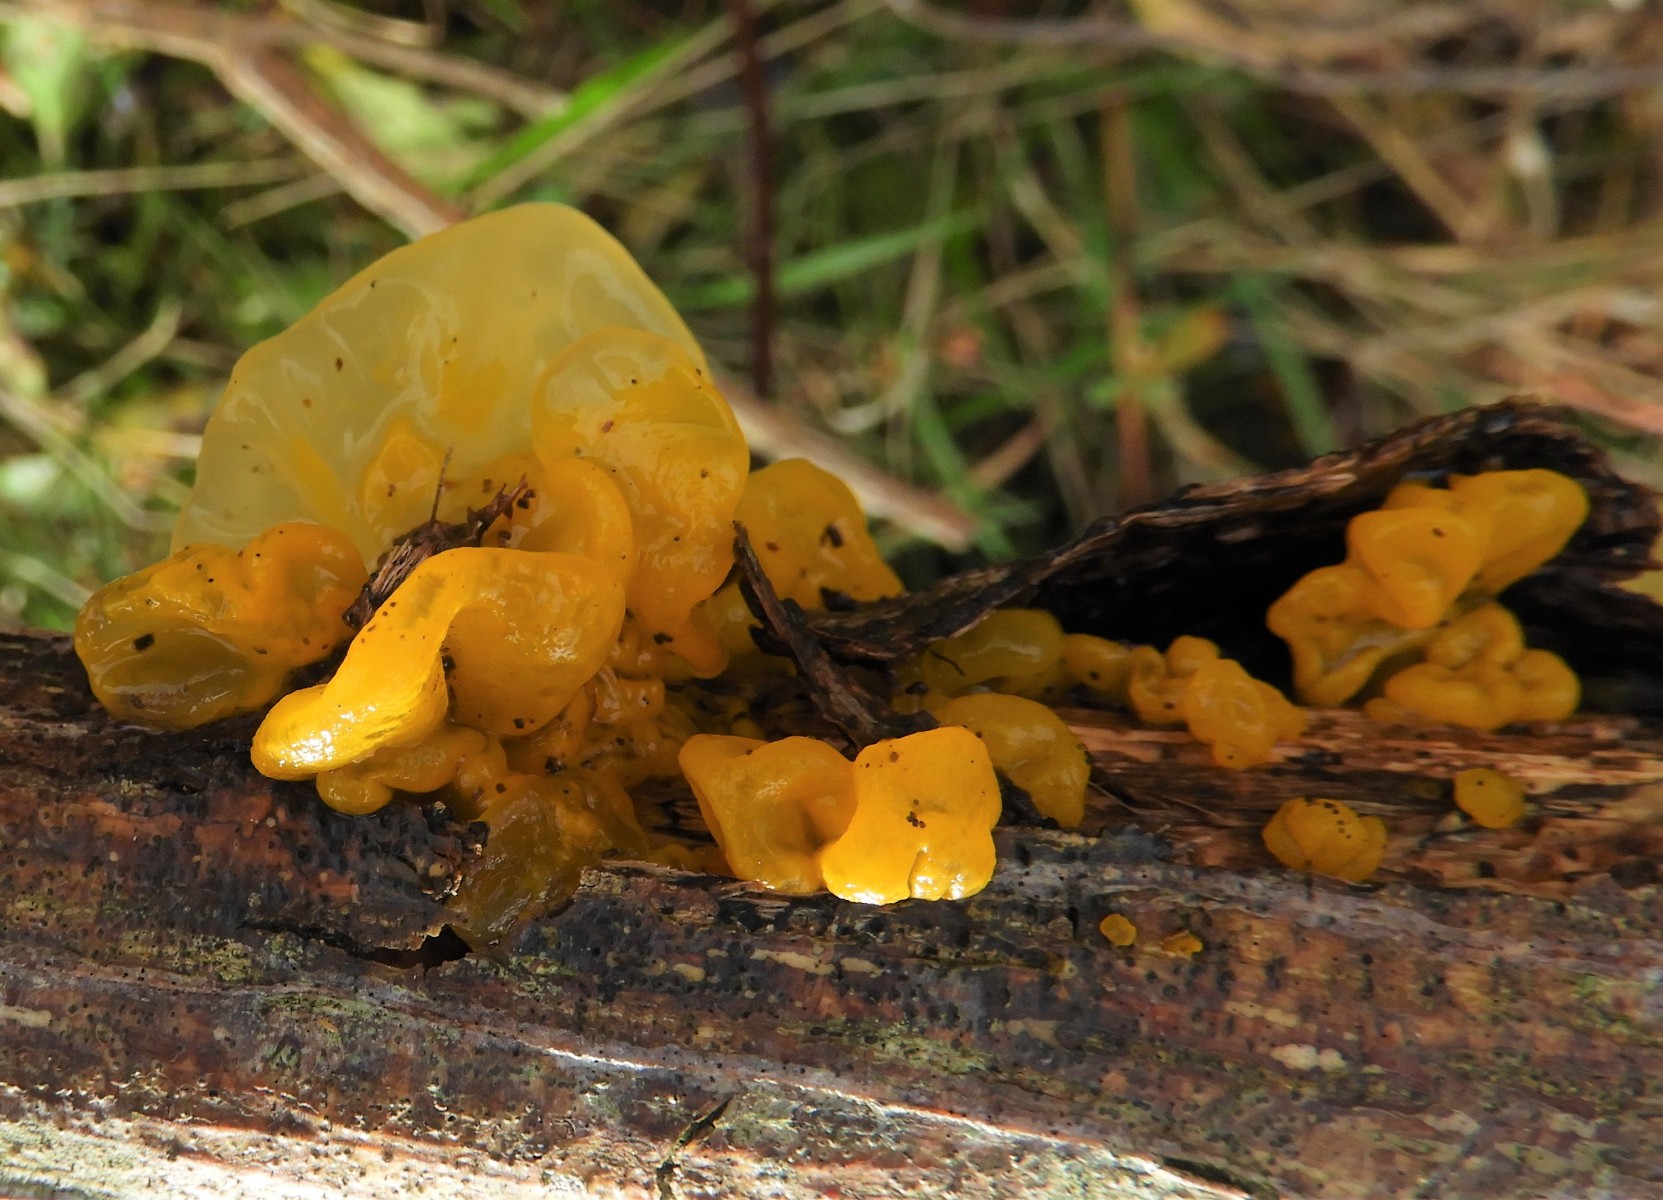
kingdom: Fungi
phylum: Basidiomycota
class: Tremellomycetes
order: Tremellales
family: Tremellaceae
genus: Tremella
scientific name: Tremella mesenterica
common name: gul bævresvamp
